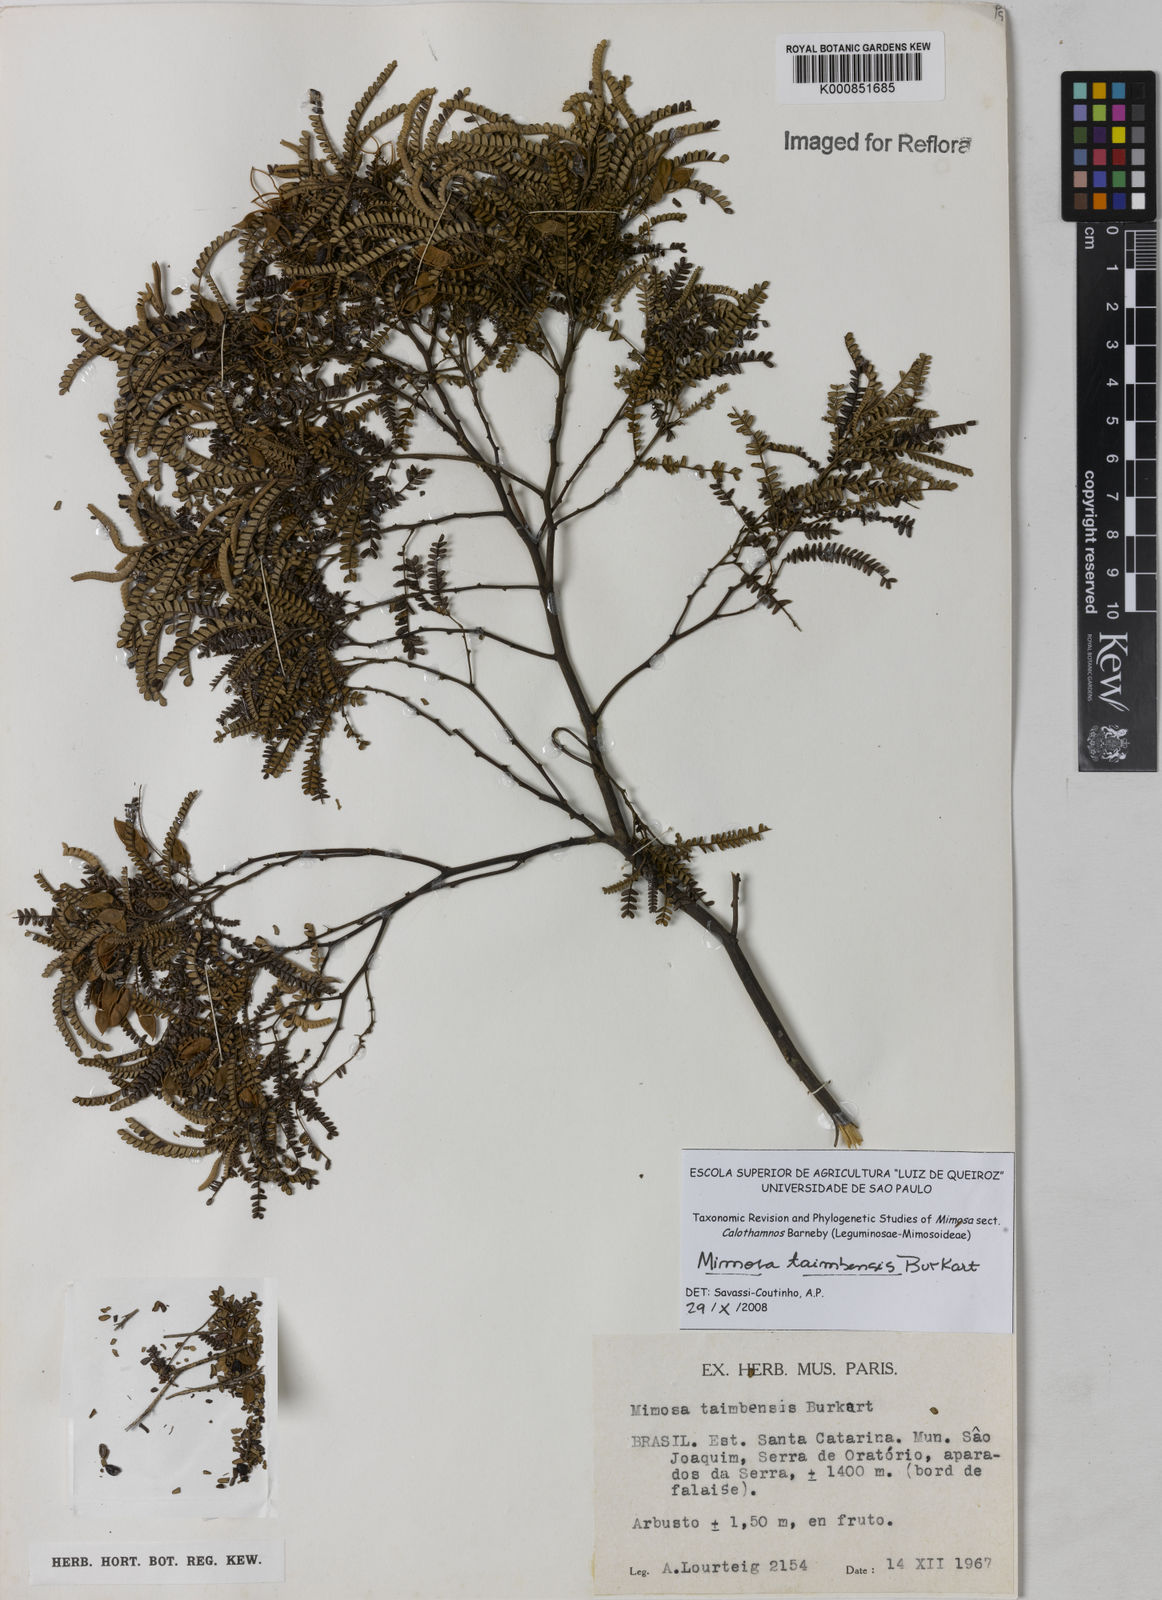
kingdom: Plantae
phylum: Tracheophyta
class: Magnoliopsida
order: Fabales
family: Fabaceae
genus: Mimosa
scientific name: Mimosa taimbensis
